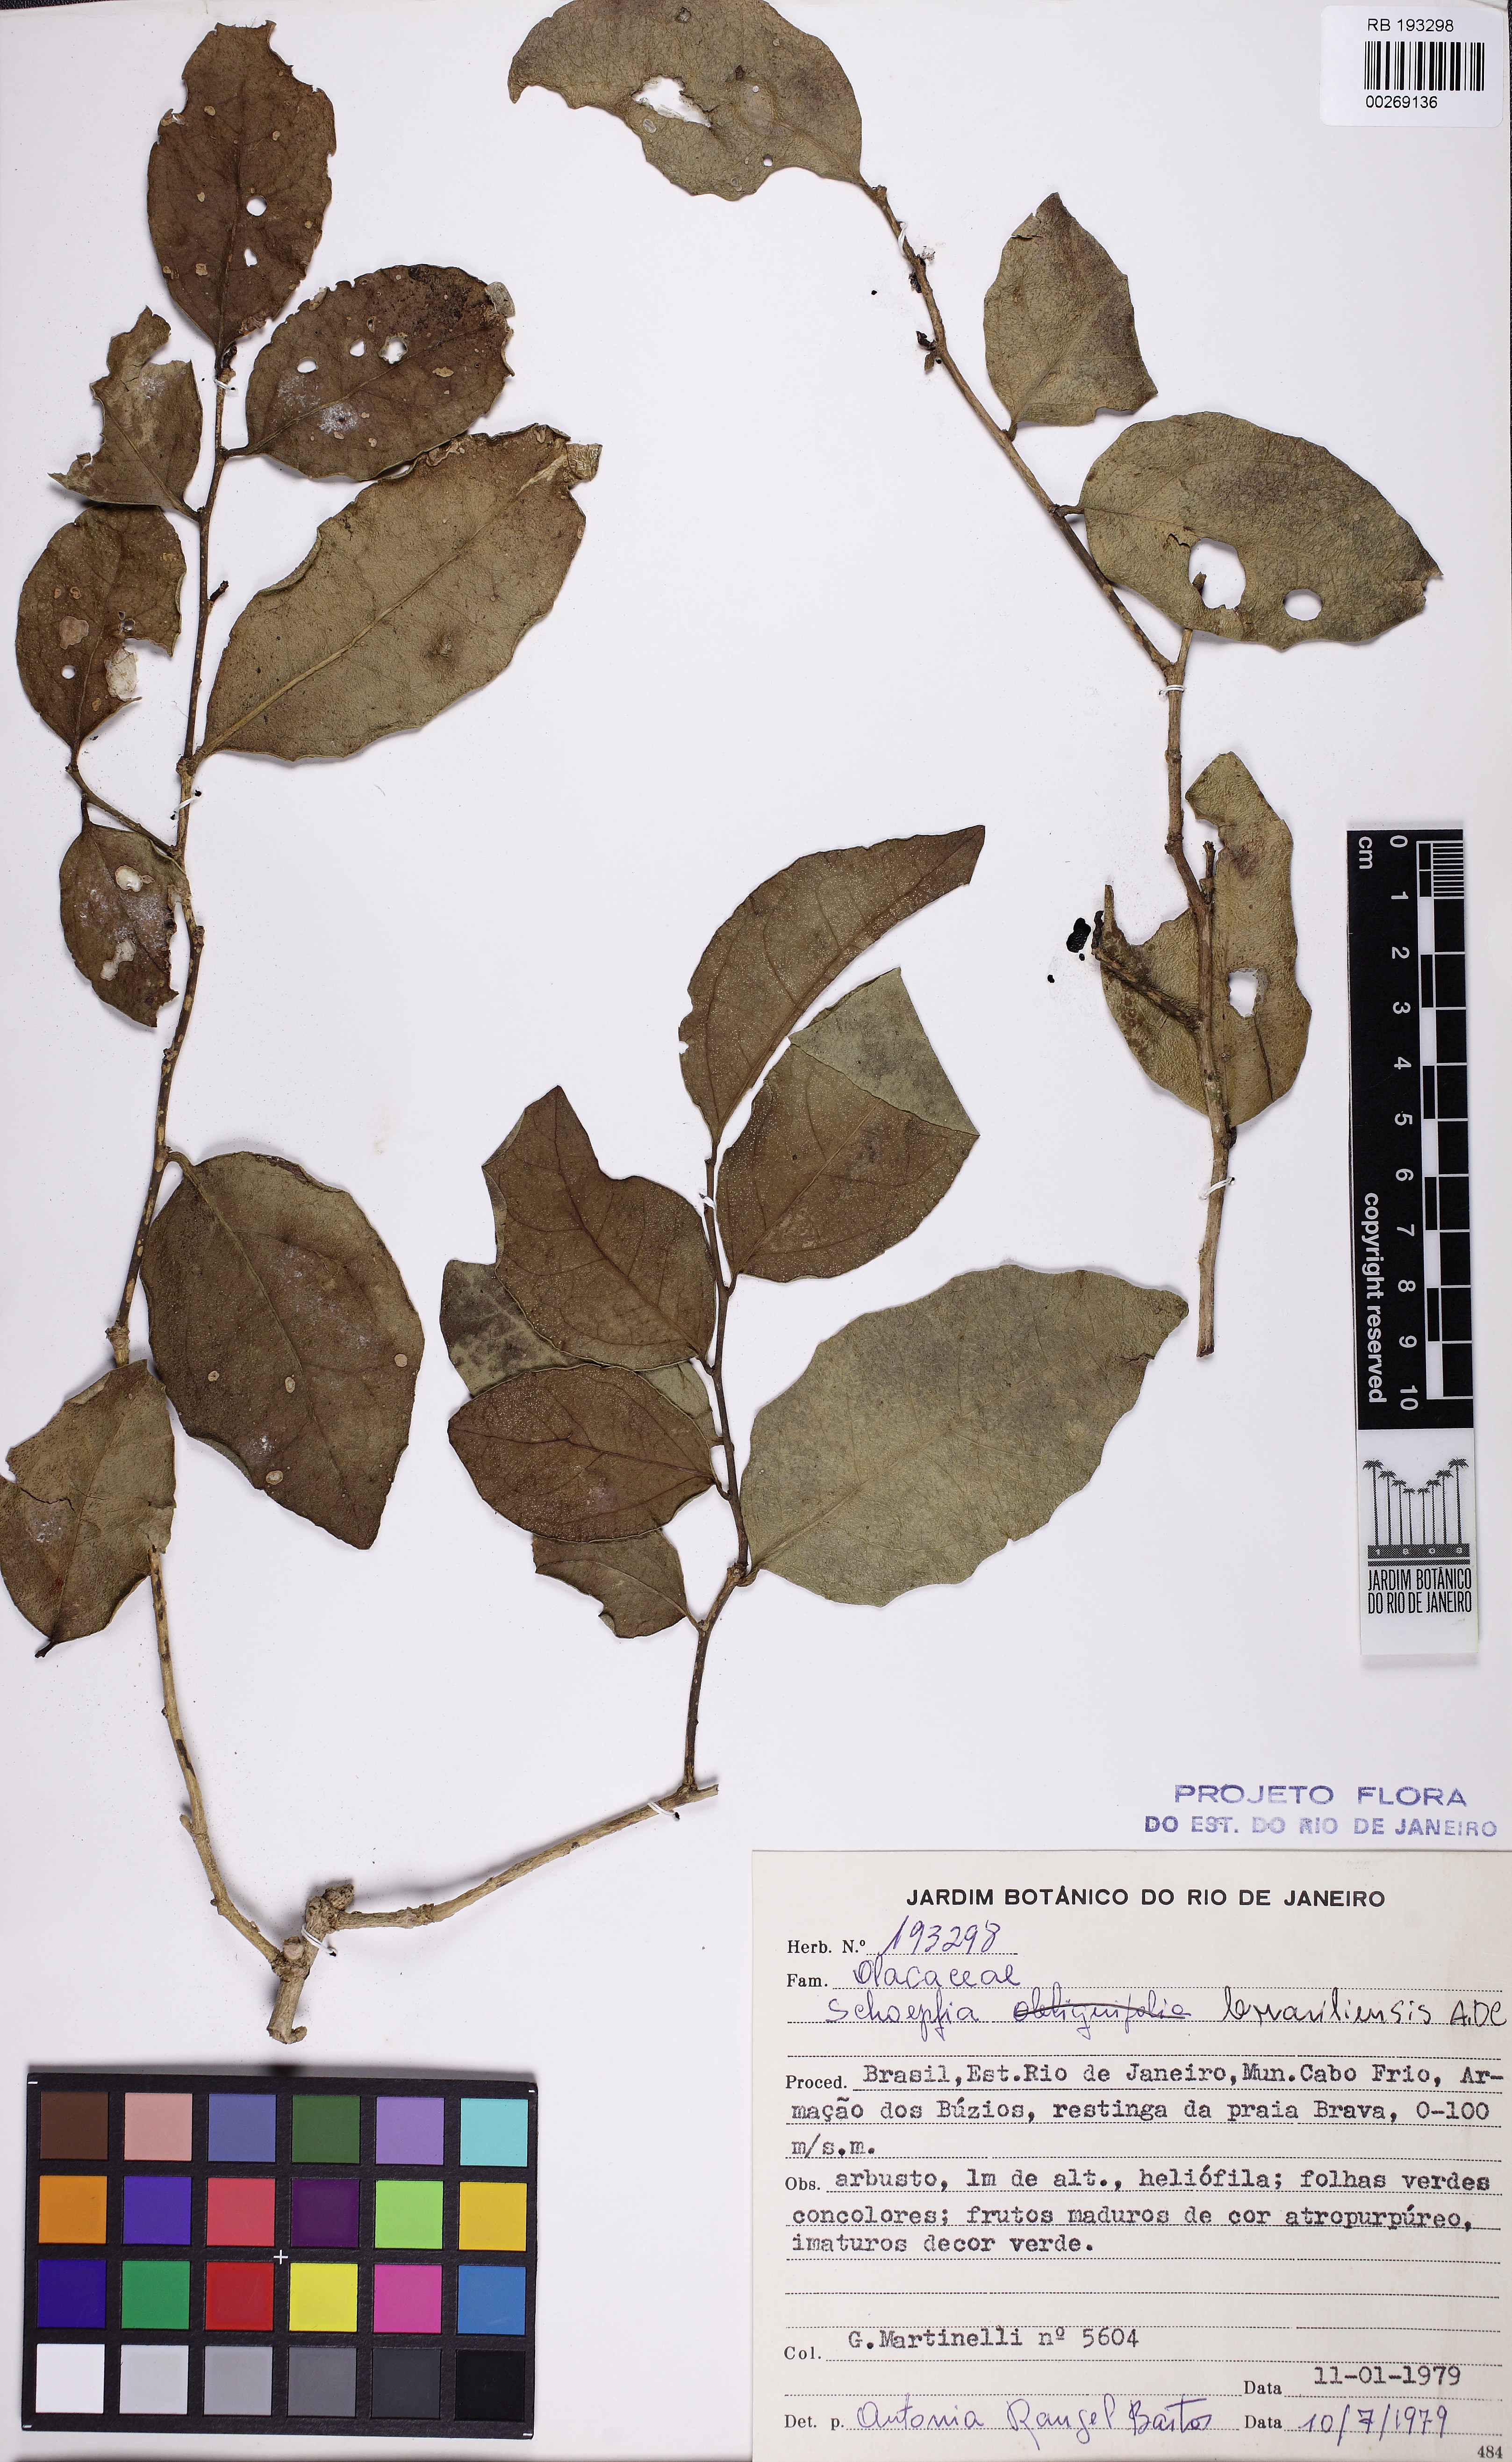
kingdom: Plantae
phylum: Tracheophyta
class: Magnoliopsida
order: Santalales
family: Schoepfiaceae
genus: Schoepfia
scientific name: Schoepfia brasiliensis
